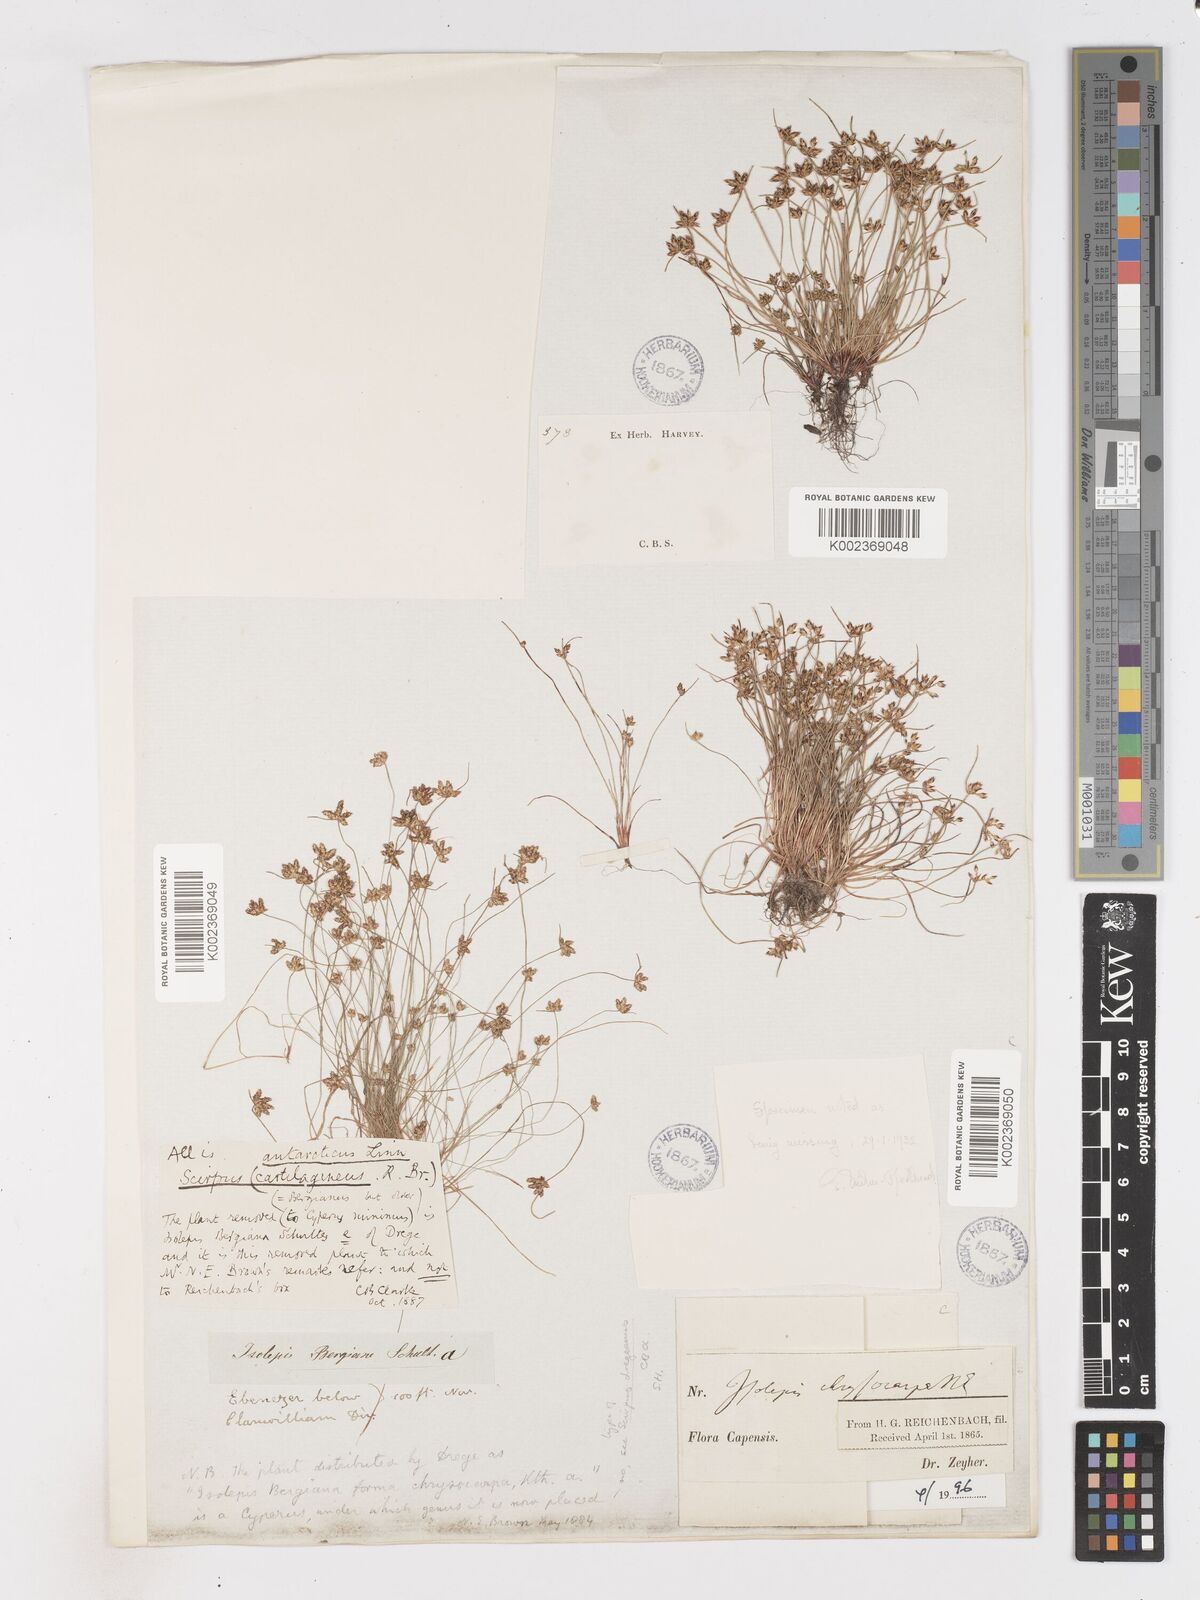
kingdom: Plantae
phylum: Tracheophyta
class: Liliopsida
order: Poales
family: Cyperaceae
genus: Isolepis
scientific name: Isolepis diabolica
